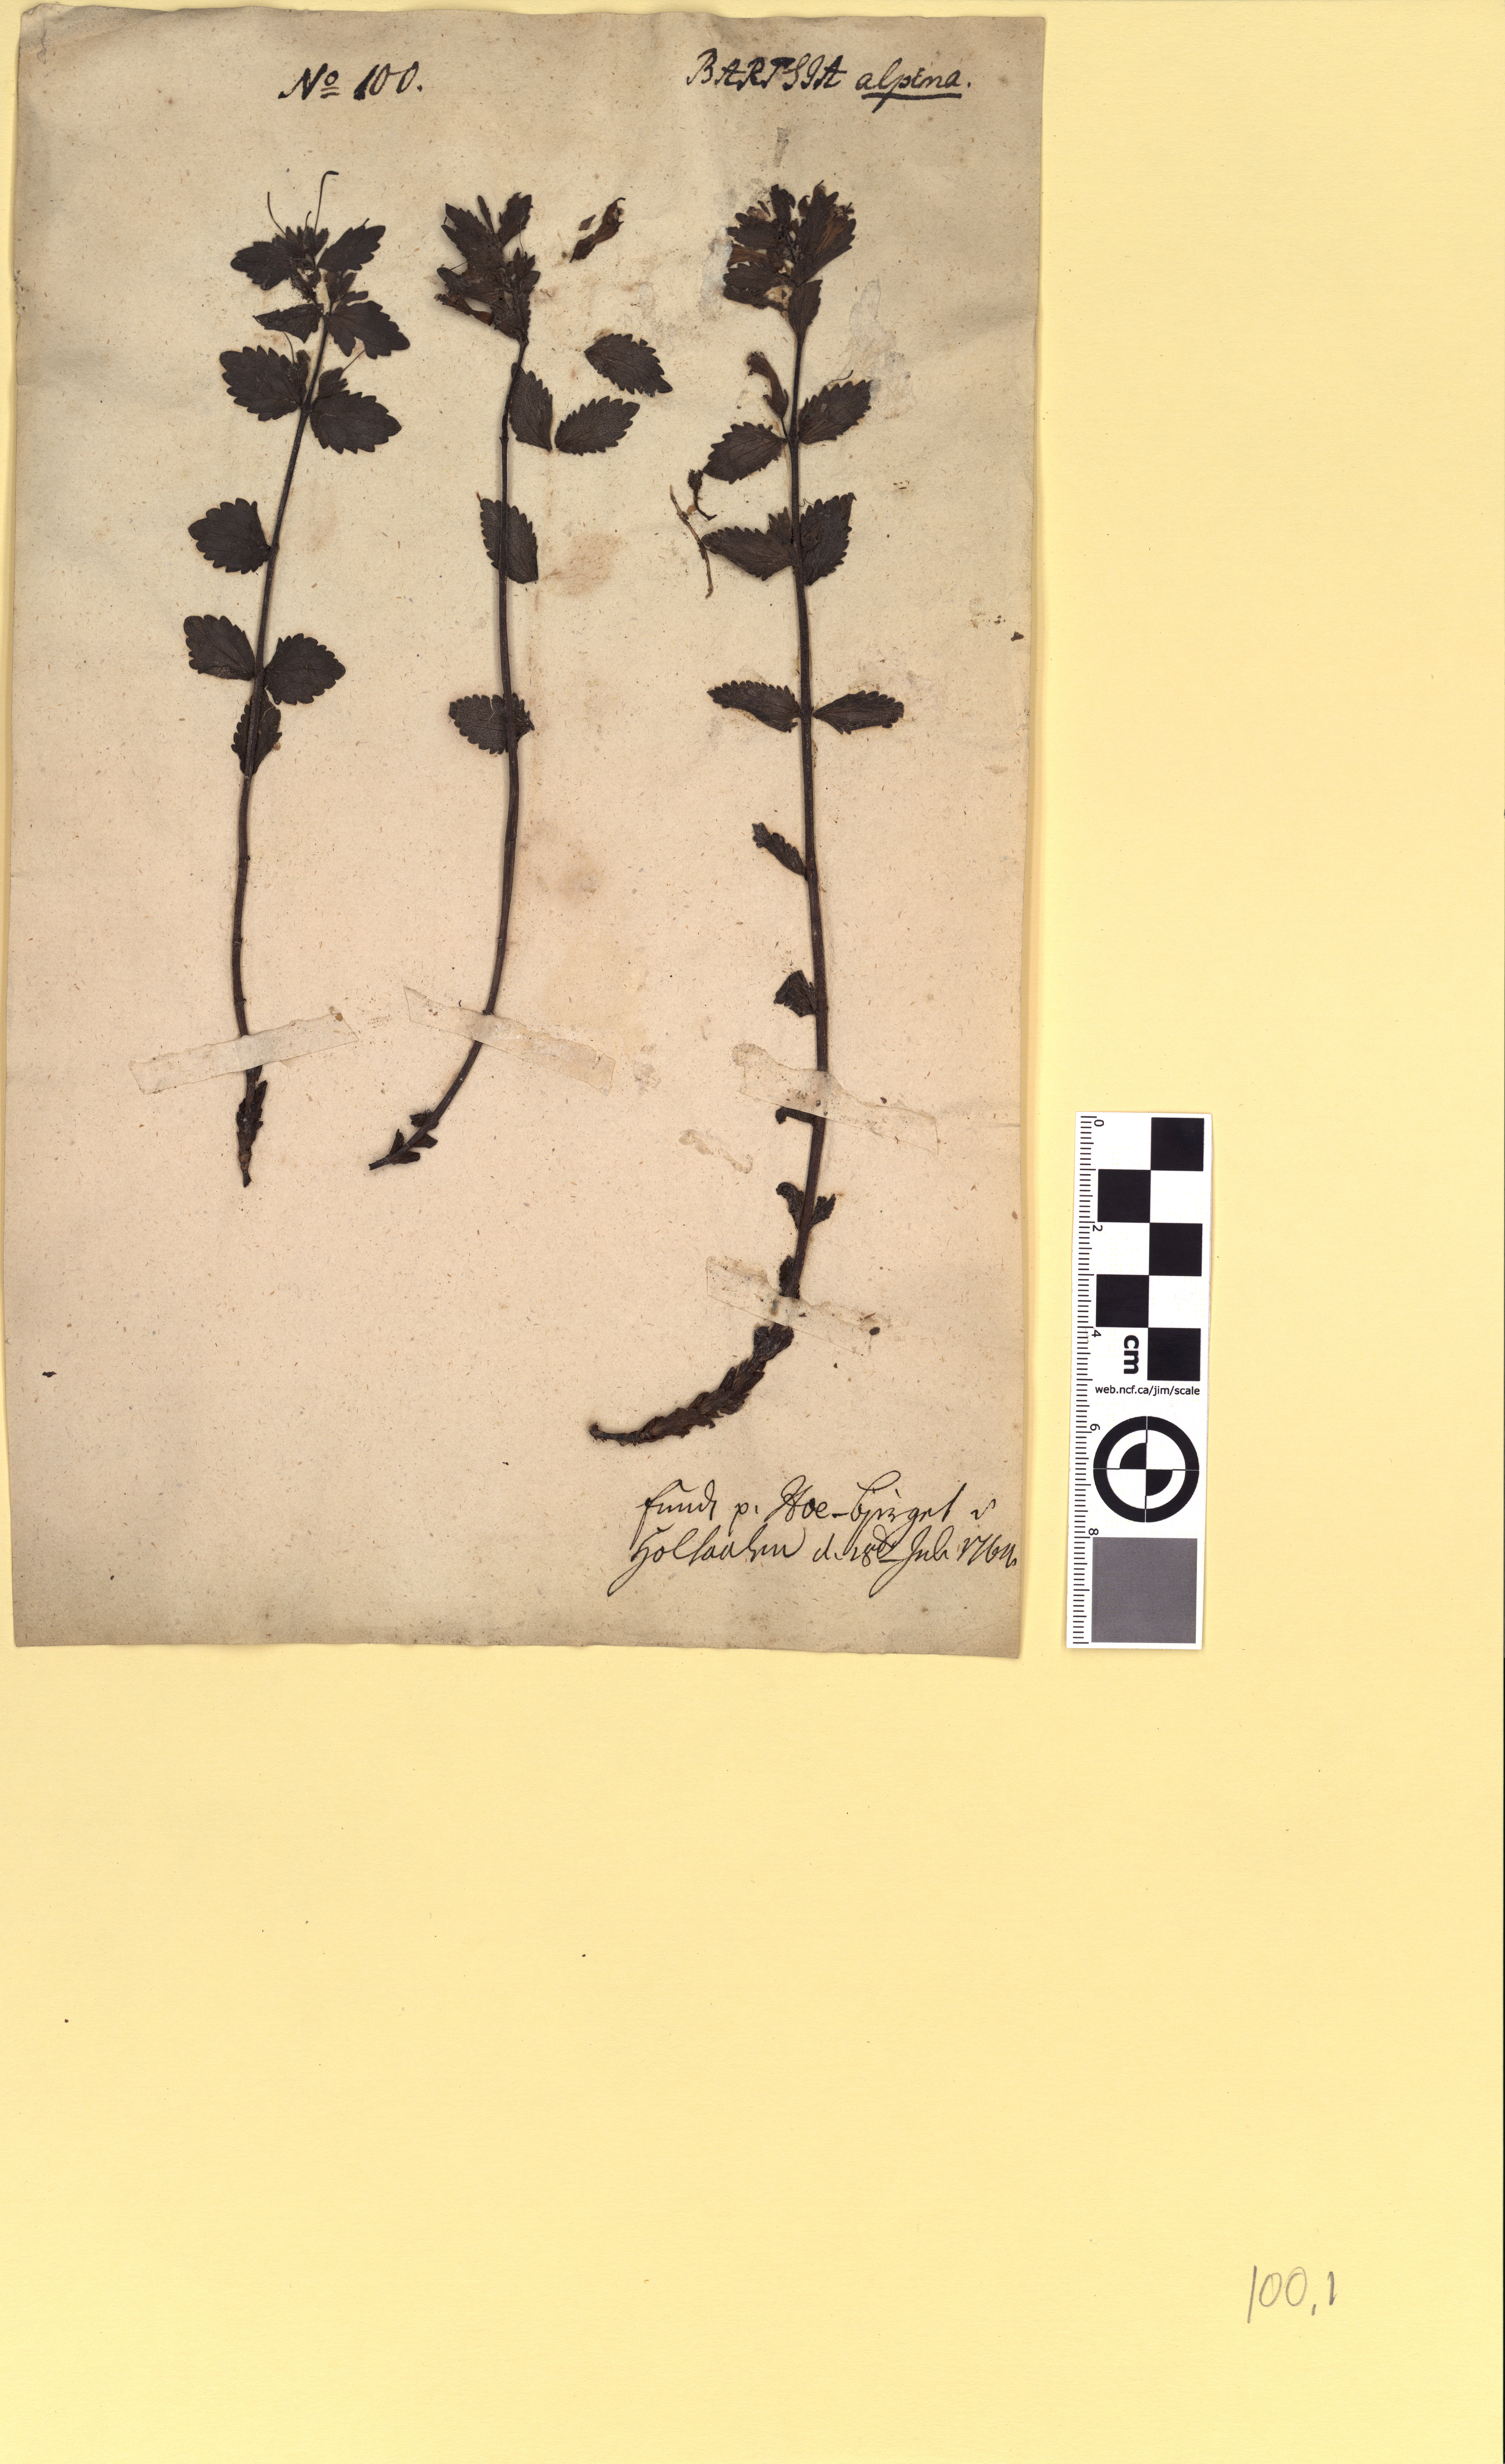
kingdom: Plantae
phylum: Tracheophyta
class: Magnoliopsida
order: Lamiales
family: Orobanchaceae
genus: Bartsia
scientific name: Bartsia alpina
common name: Alpine bartsia
